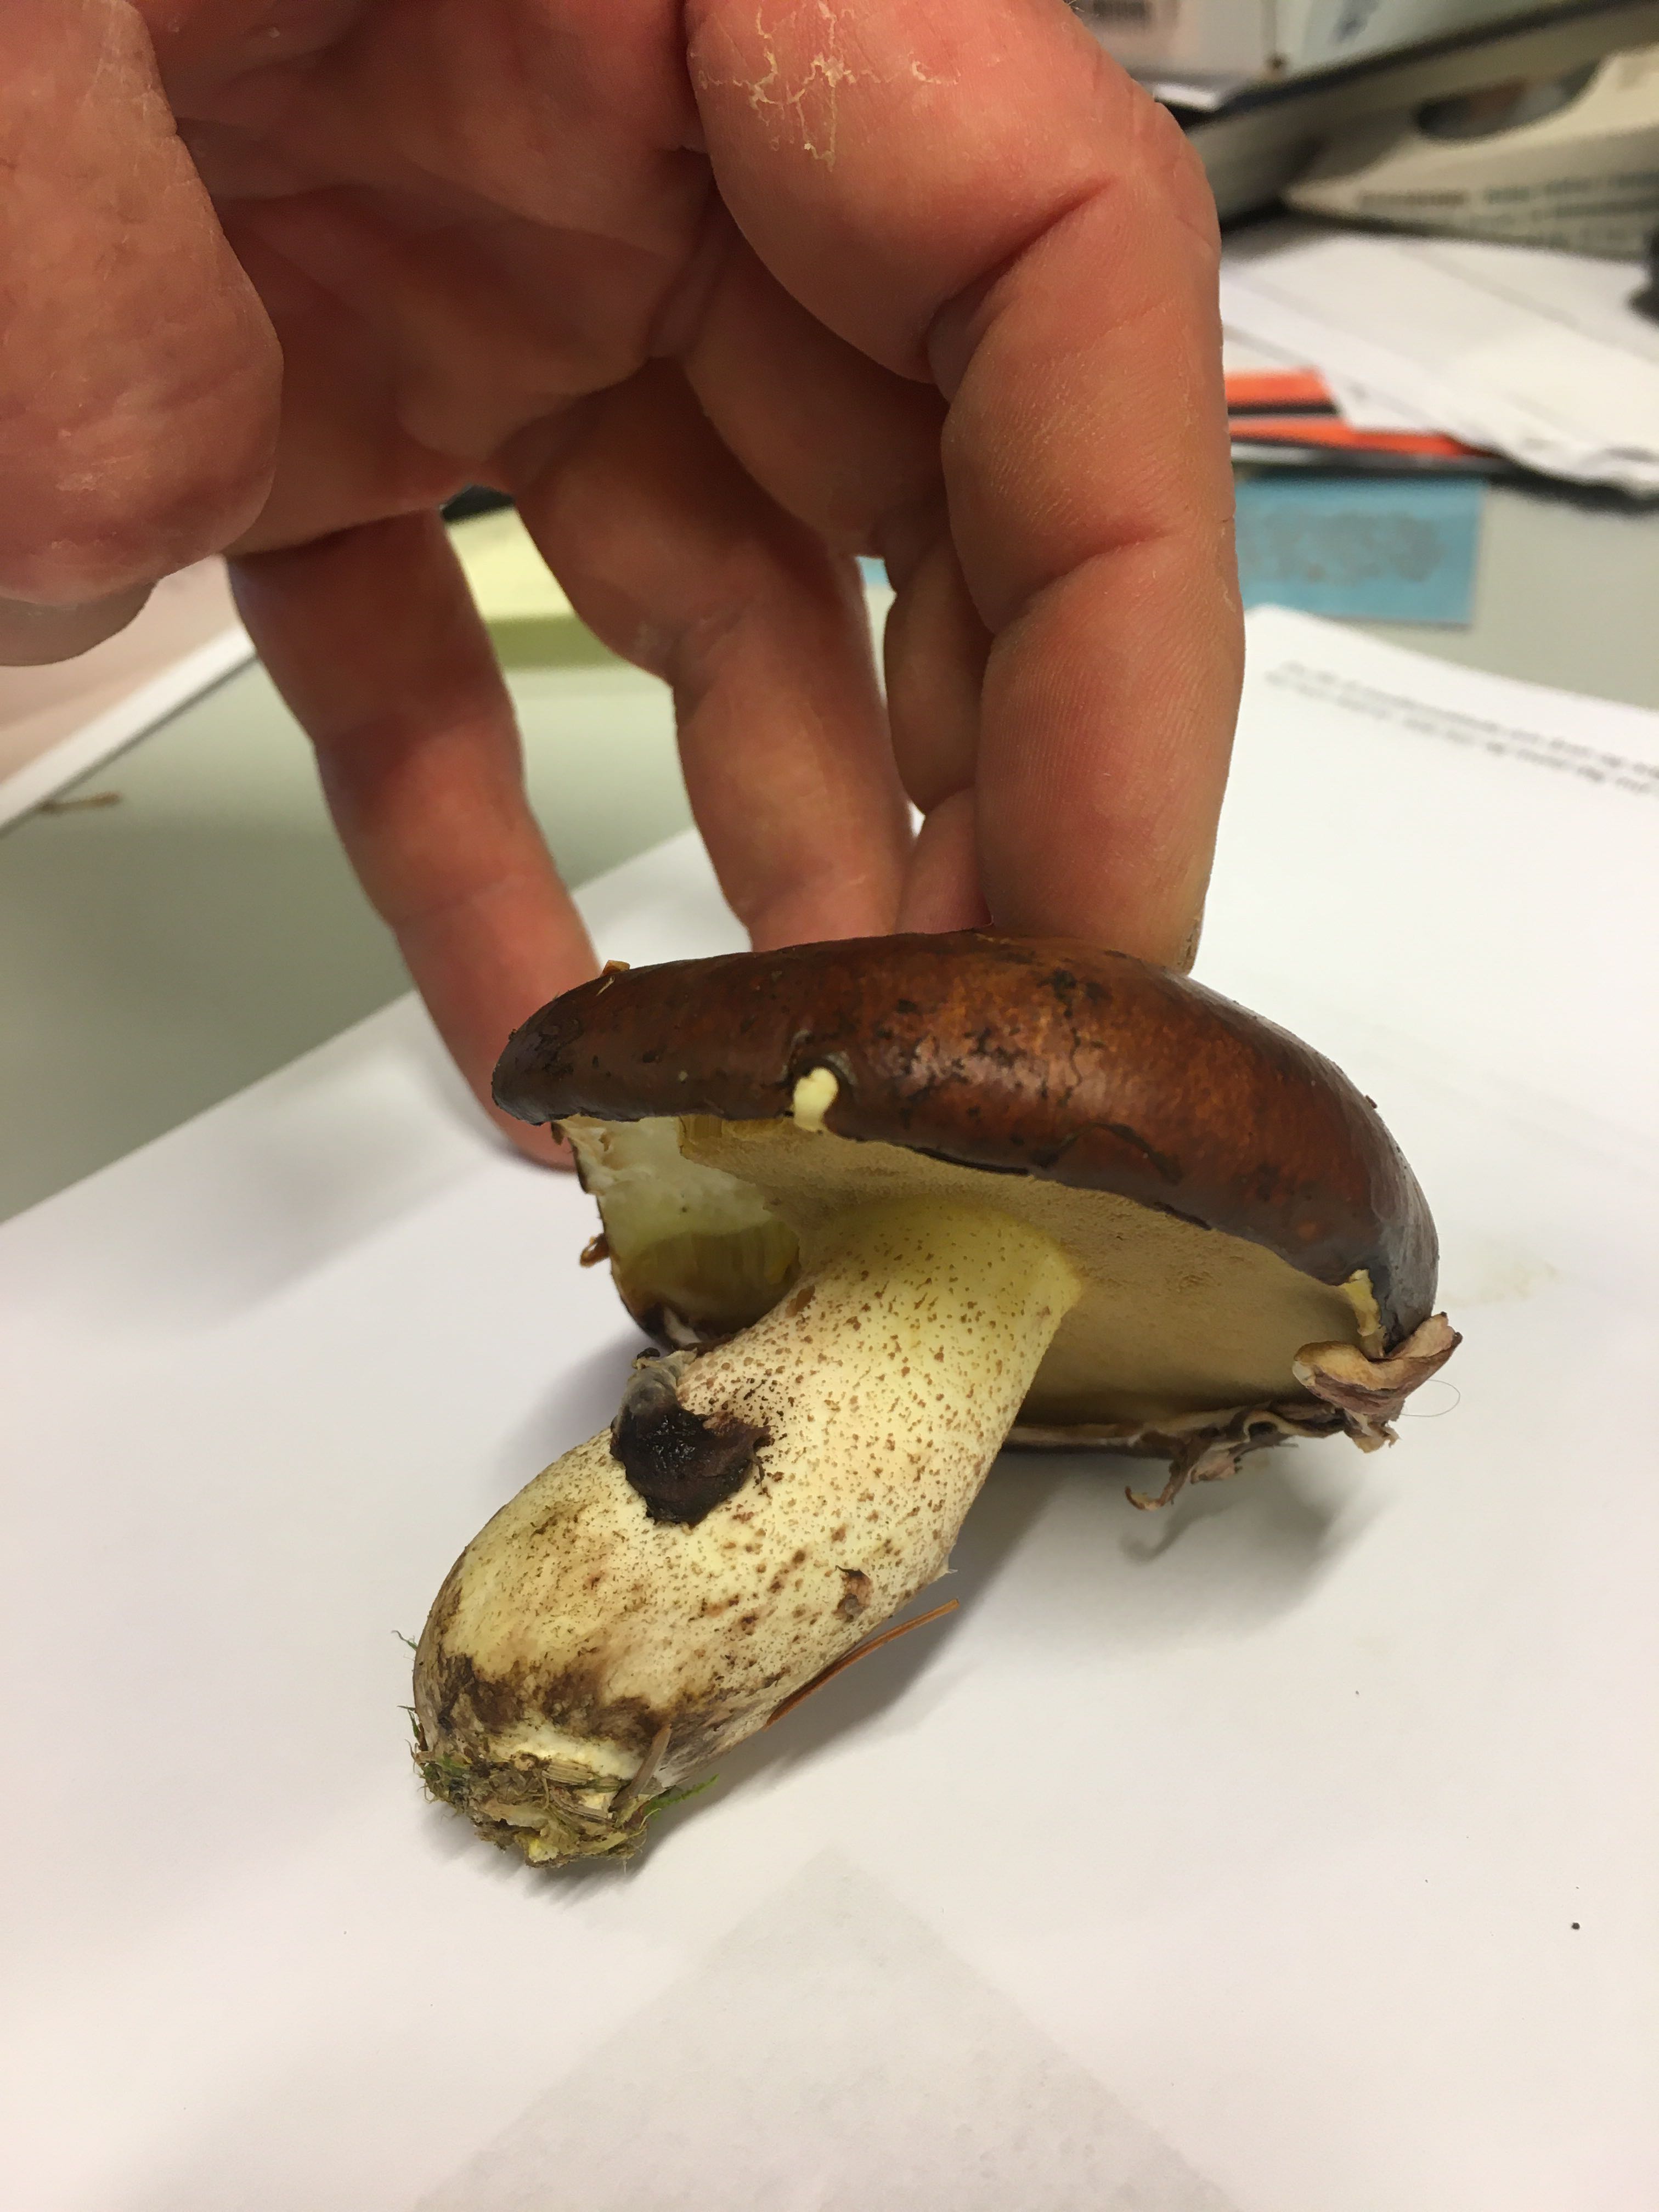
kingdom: Fungi
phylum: Basidiomycota
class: Agaricomycetes
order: Boletales
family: Suillaceae
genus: Suillus
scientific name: Suillus luteus
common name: brungul slimrørhat
